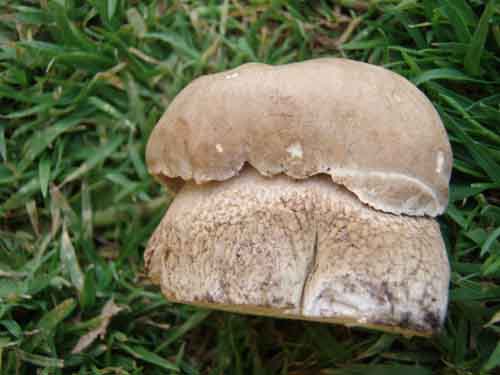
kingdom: Fungi
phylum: Basidiomycota
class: Agaricomycetes
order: Boletales
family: Boletaceae
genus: Boletus
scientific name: Boletus reticulatus
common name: sommer-rørhat
